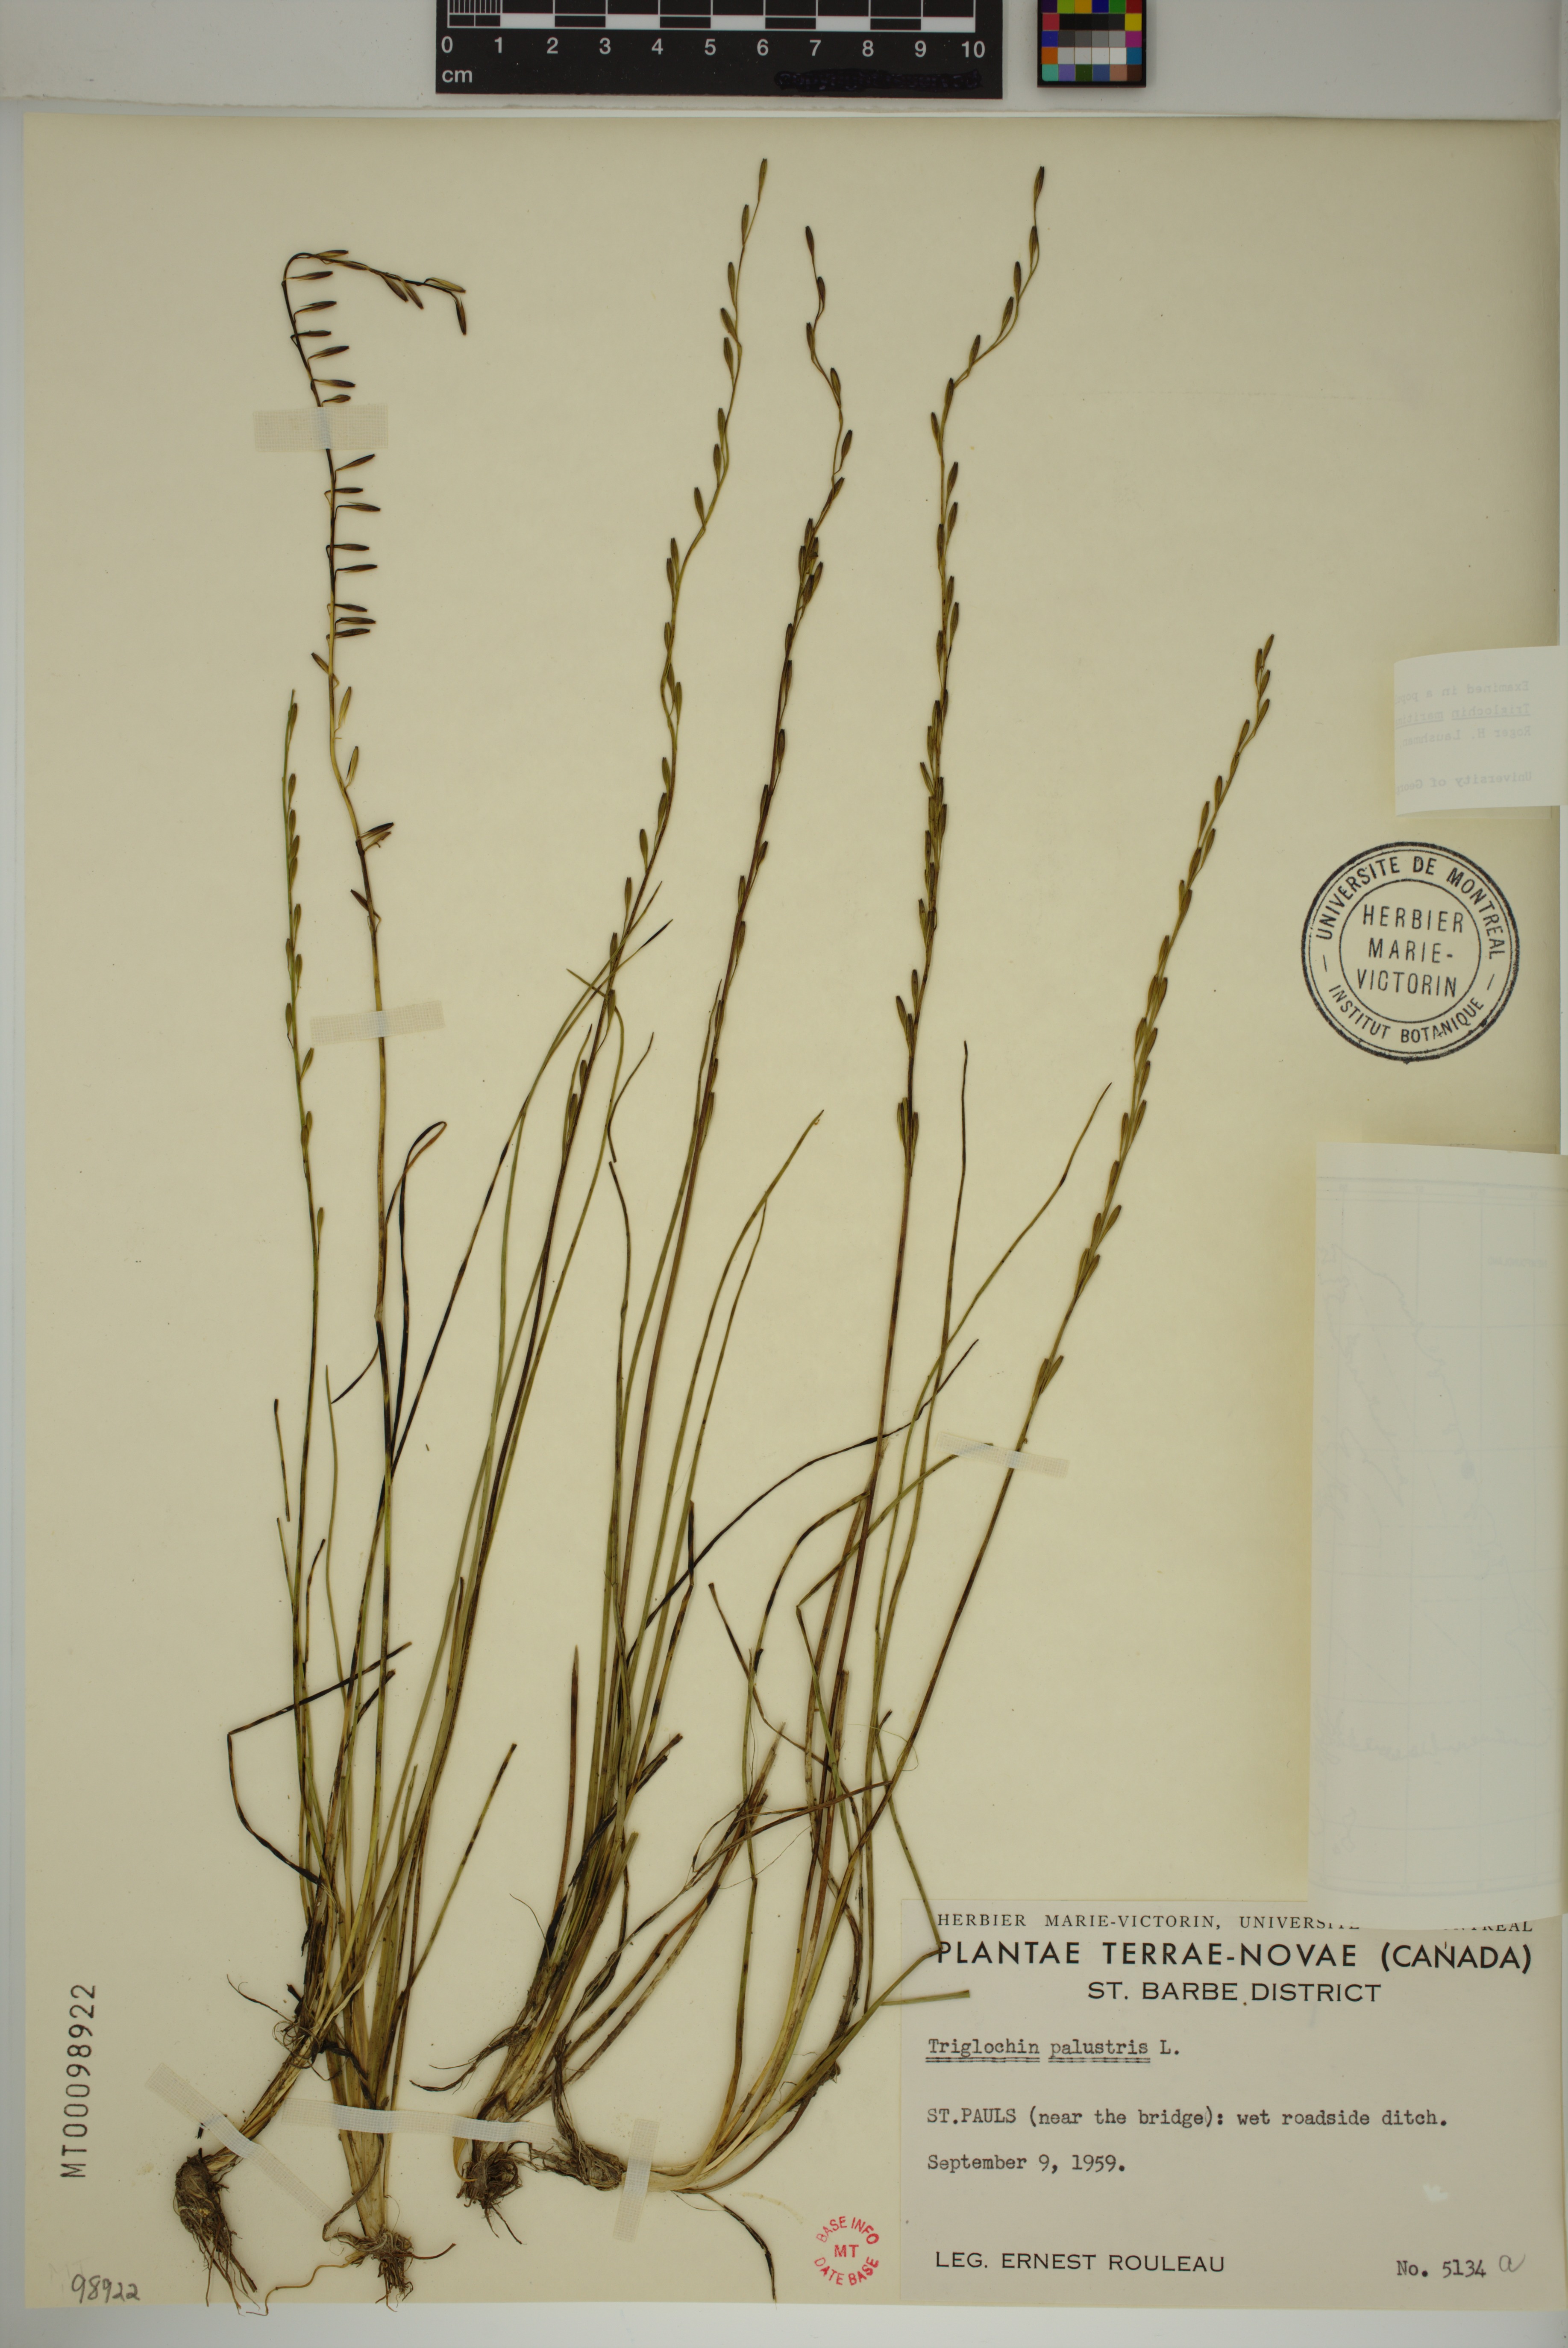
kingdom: Plantae
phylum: Tracheophyta
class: Liliopsida
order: Alismatales
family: Juncaginaceae
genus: Triglochin
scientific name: Triglochin palustris
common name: Marsh arrowgrass
